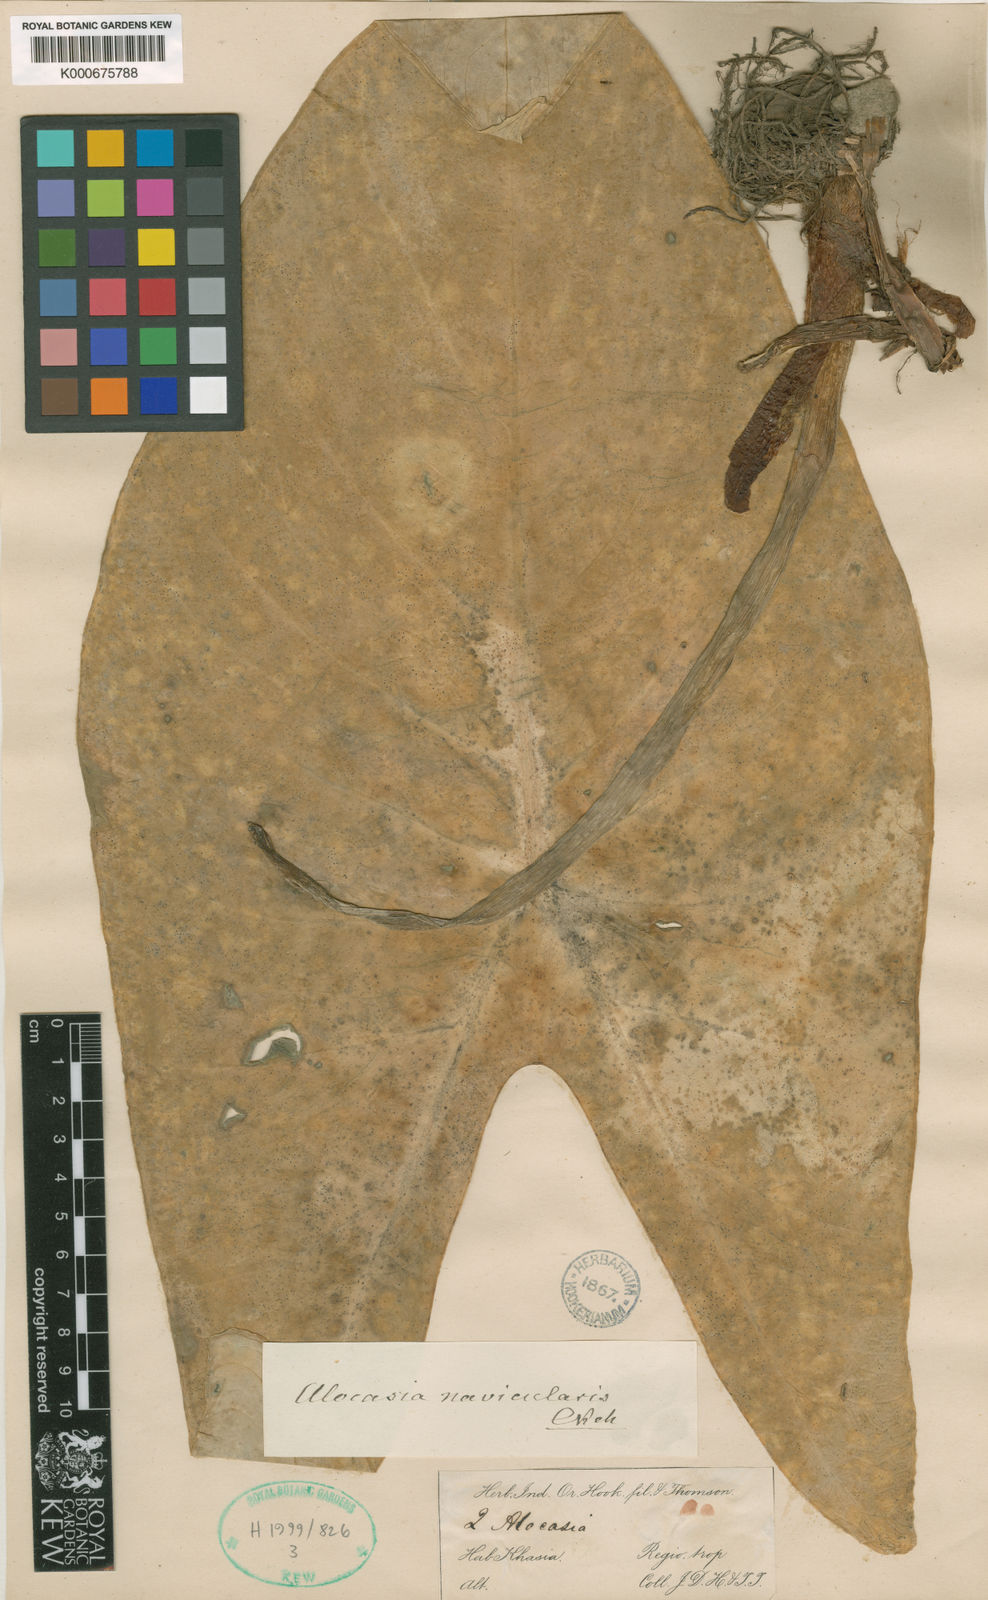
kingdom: Plantae
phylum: Tracheophyta
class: Liliopsida
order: Alismatales
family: Araceae
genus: Alocasia
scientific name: Alocasia
